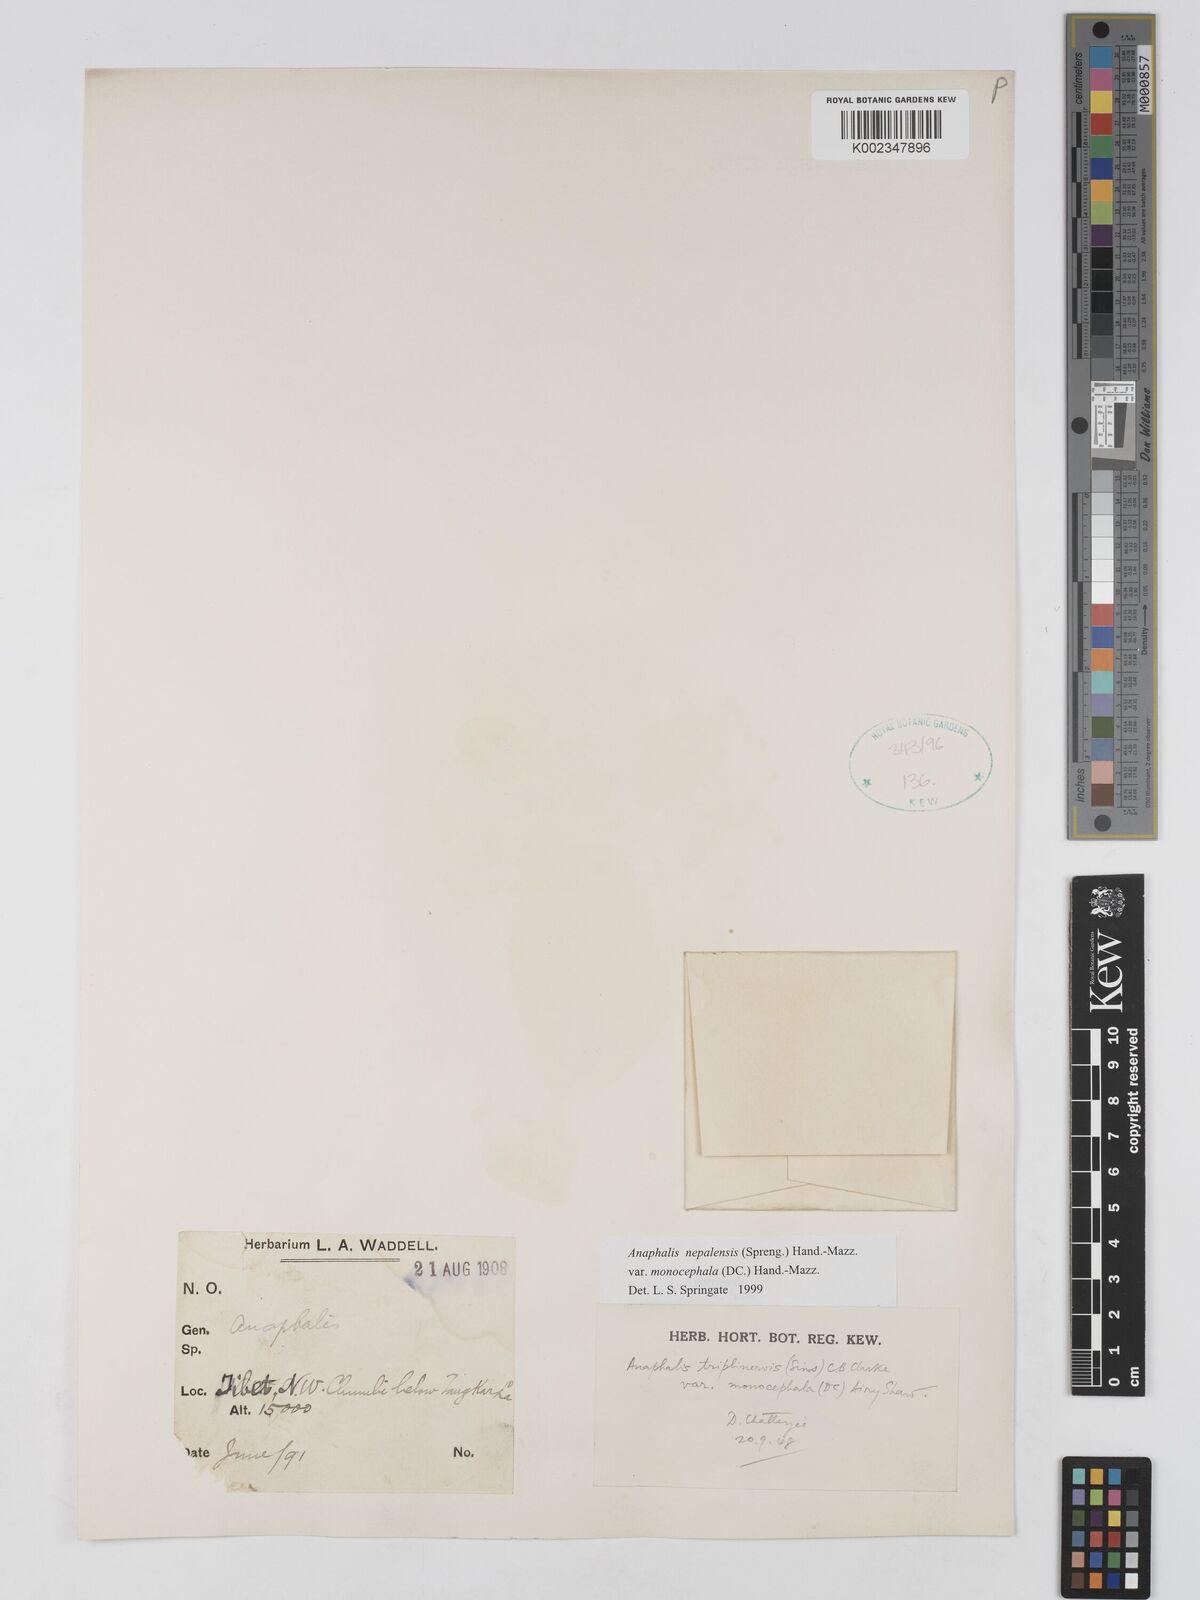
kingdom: Plantae
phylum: Tracheophyta
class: Magnoliopsida
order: Asterales
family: Asteraceae
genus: Anaphalis
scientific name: Anaphalis nepalensis
